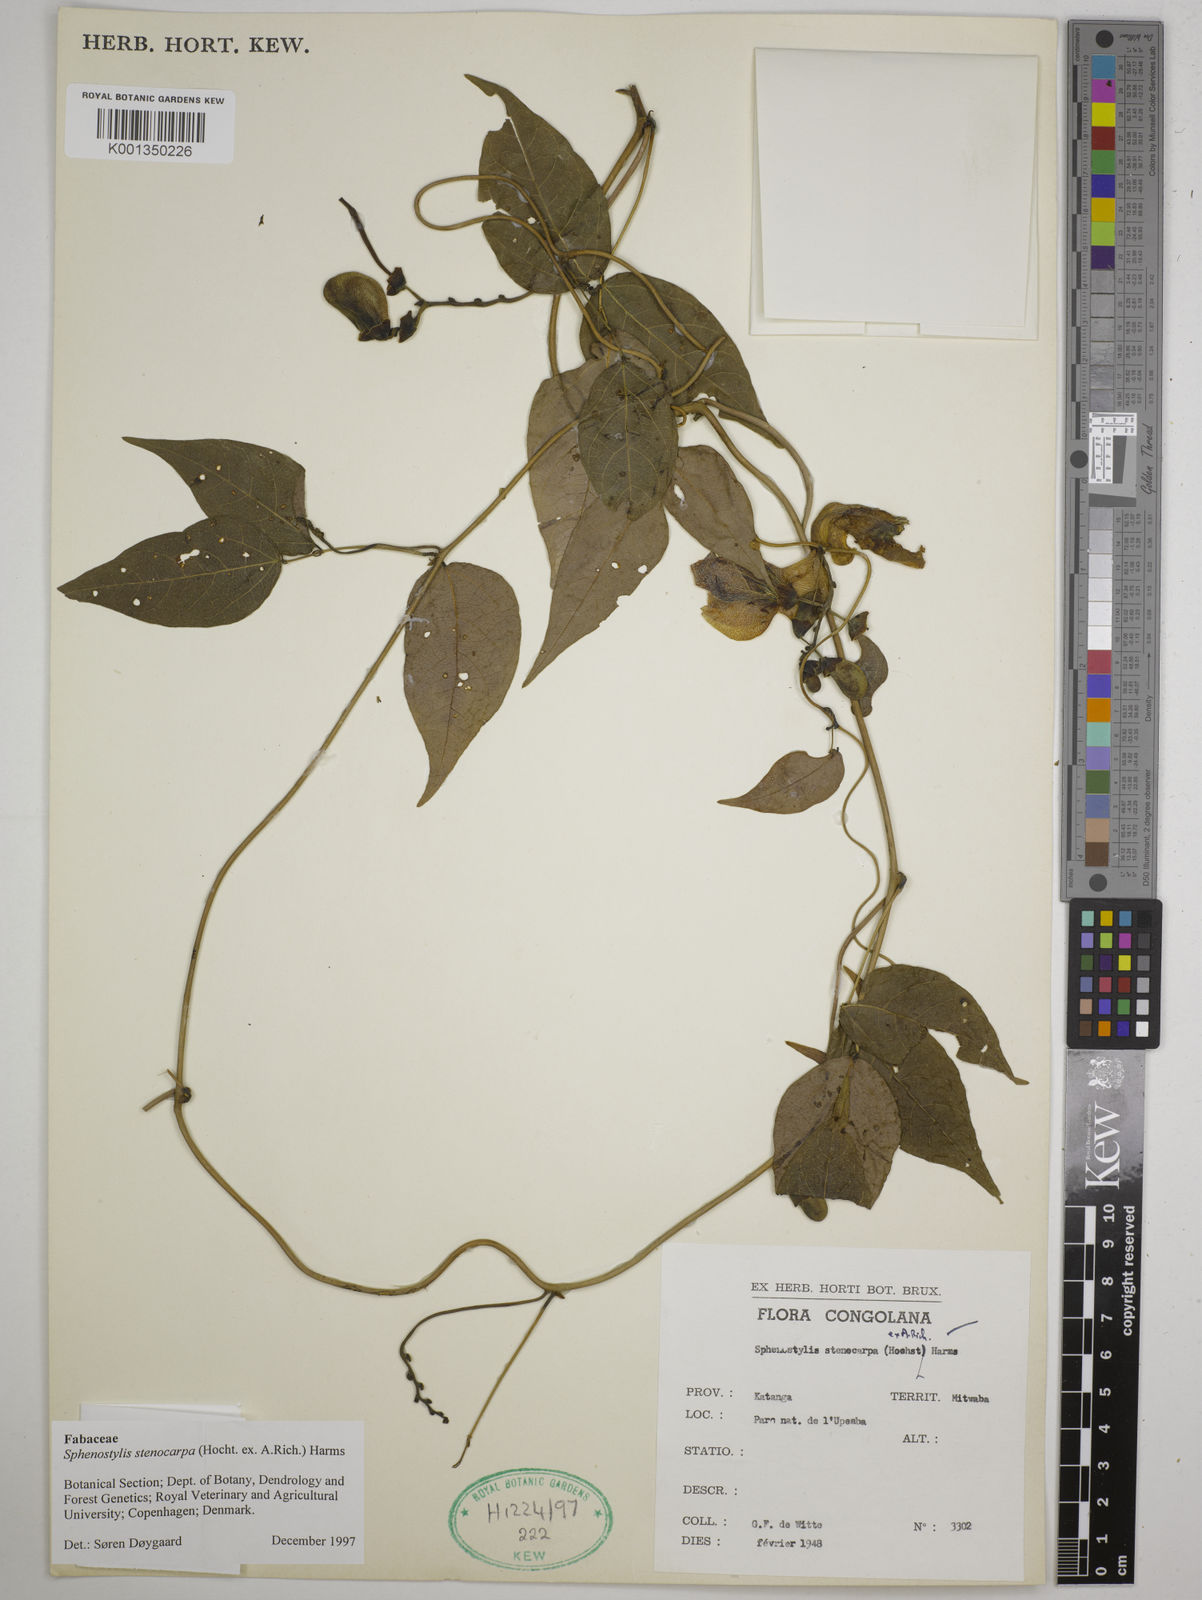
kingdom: Plantae
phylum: Tracheophyta
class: Magnoliopsida
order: Fabales
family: Fabaceae
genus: Sphenostylis
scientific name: Sphenostylis stenocarpa
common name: Yam-pea
